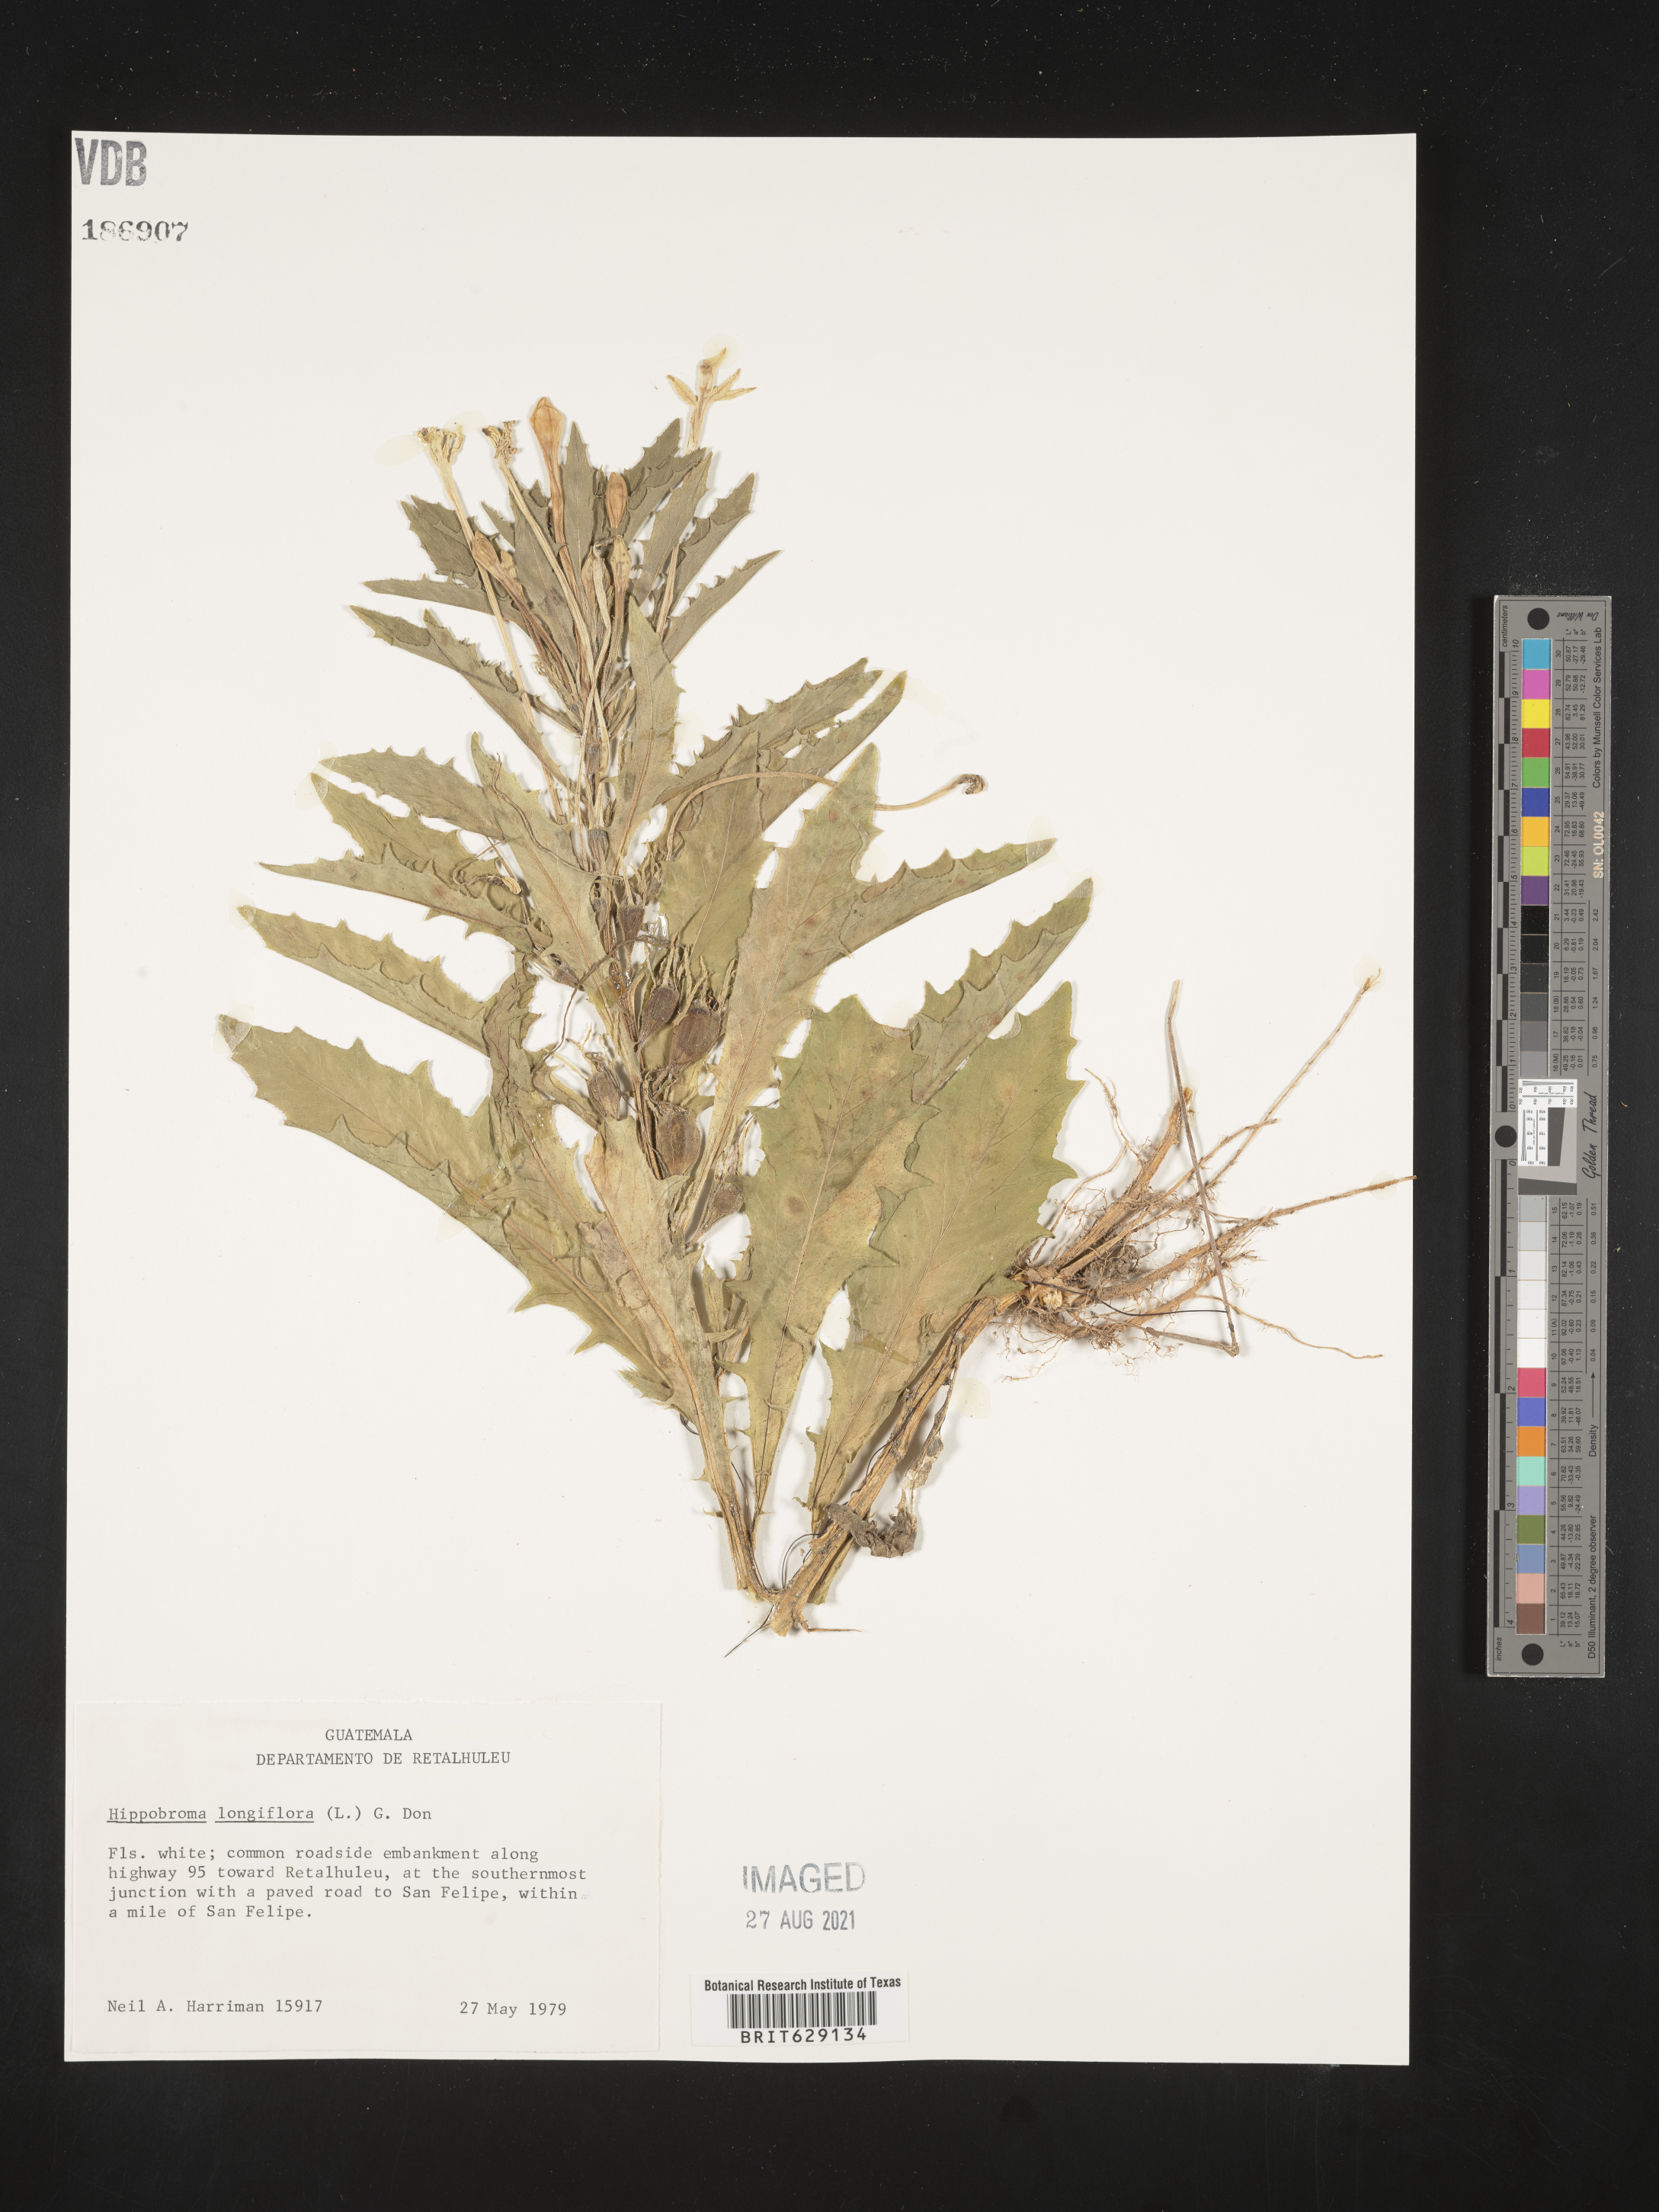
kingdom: Plantae
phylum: Tracheophyta
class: Magnoliopsida
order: Asterales
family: Campanulaceae
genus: Hippobroma
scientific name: Hippobroma longiflora
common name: Madamfate
